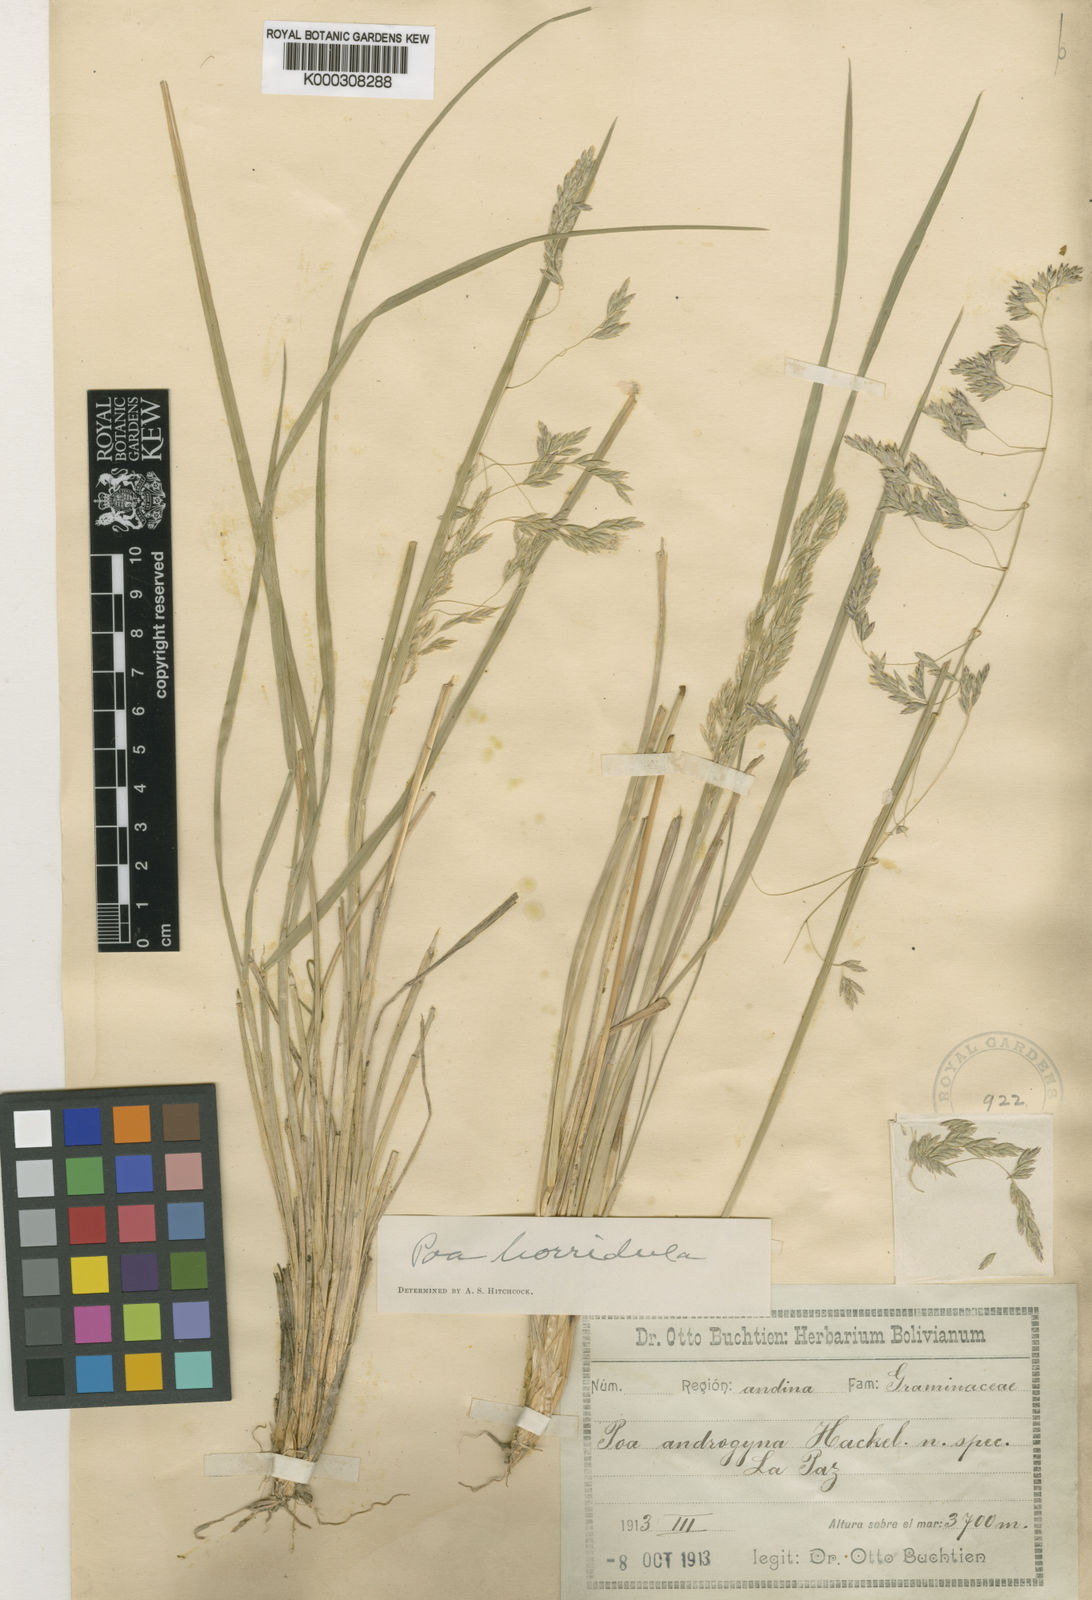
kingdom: Plantae
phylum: Tracheophyta
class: Liliopsida
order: Poales
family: Poaceae
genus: Poa
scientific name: Poa androgyna
